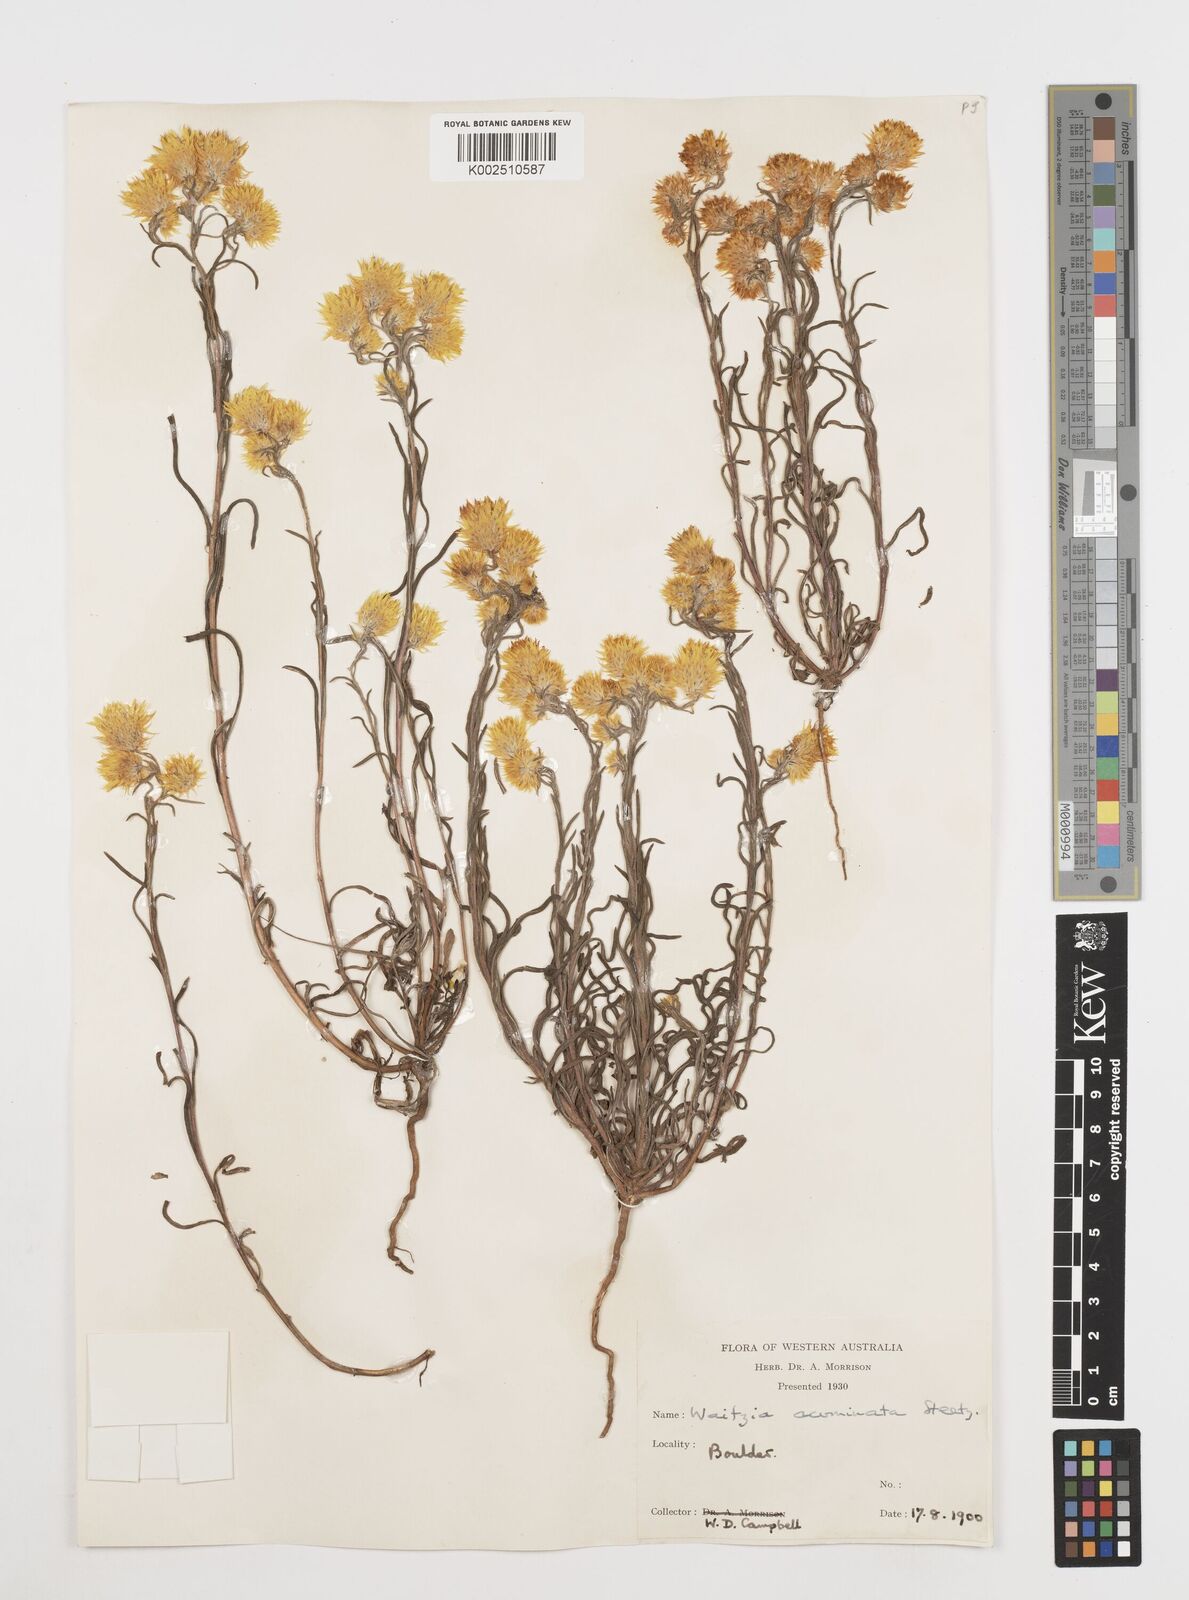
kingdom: Plantae
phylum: Tracheophyta
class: Magnoliopsida
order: Asterales
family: Asteraceae
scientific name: Asteraceae
